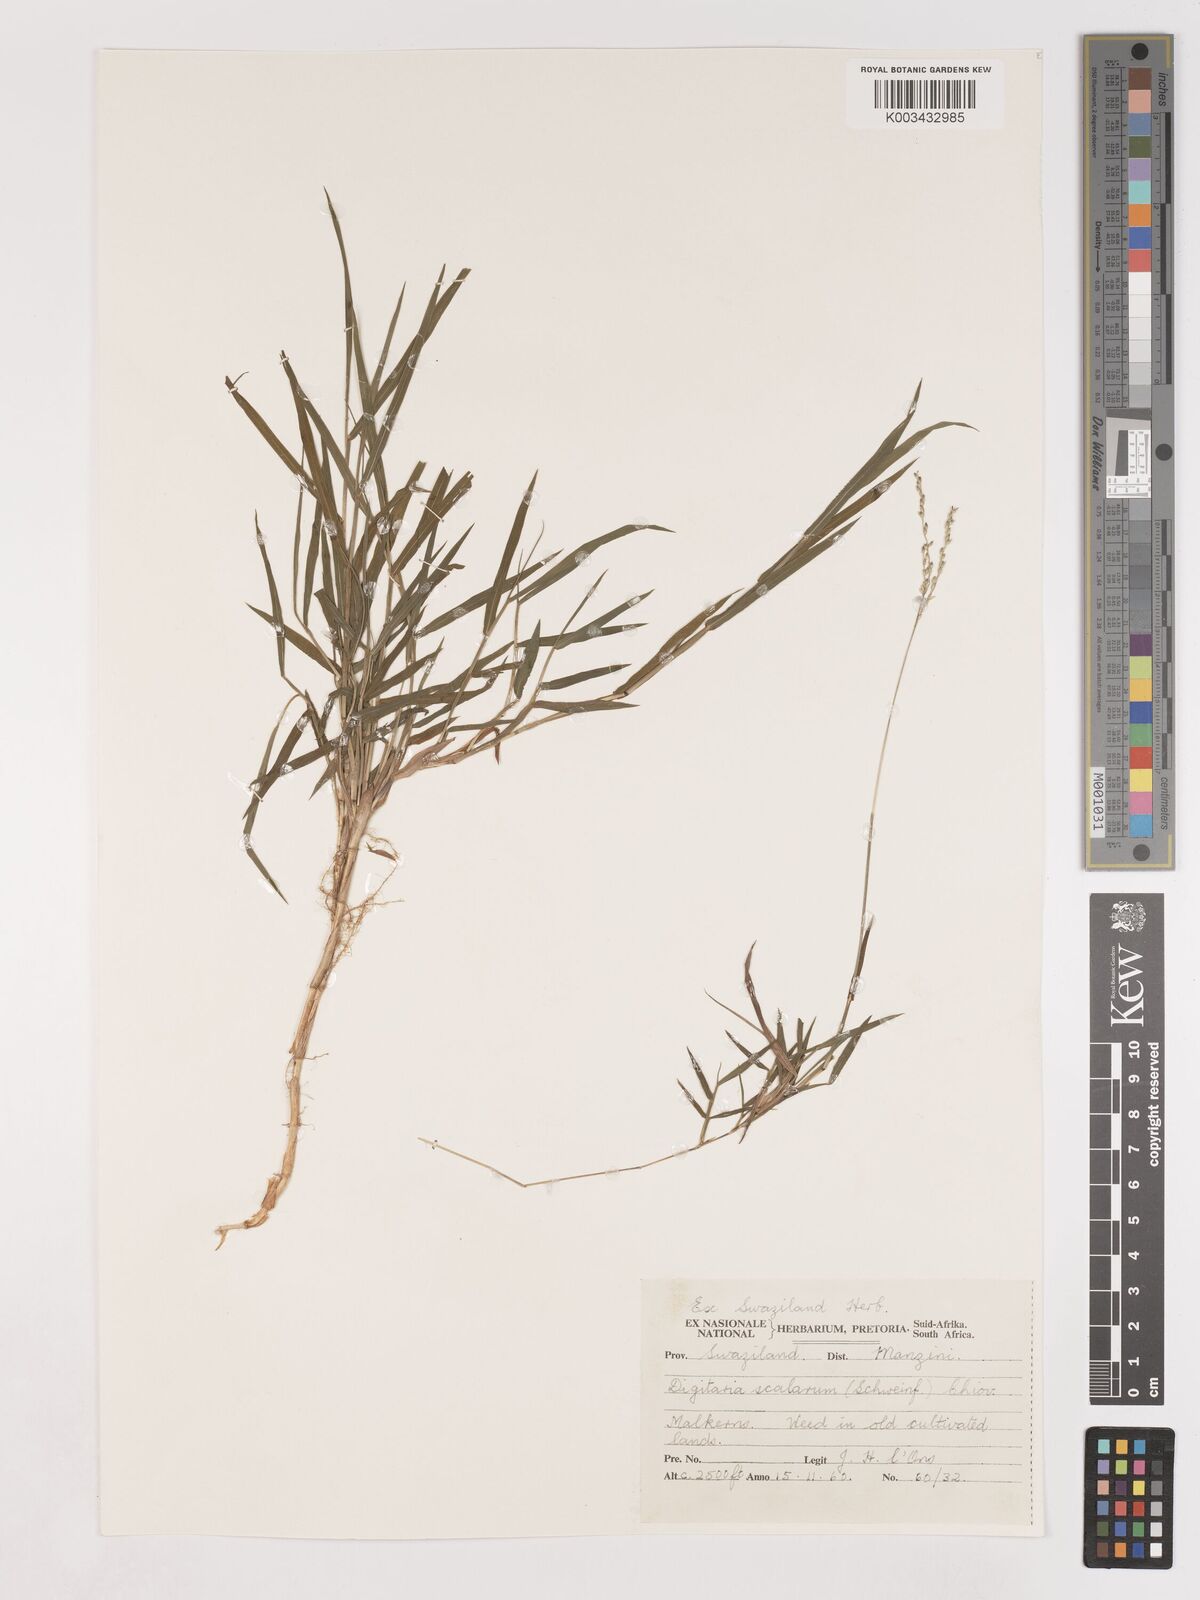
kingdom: Plantae
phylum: Tracheophyta
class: Liliopsida
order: Poales
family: Poaceae
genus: Digitaria
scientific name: Digitaria abyssinica
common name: African couchgrass
